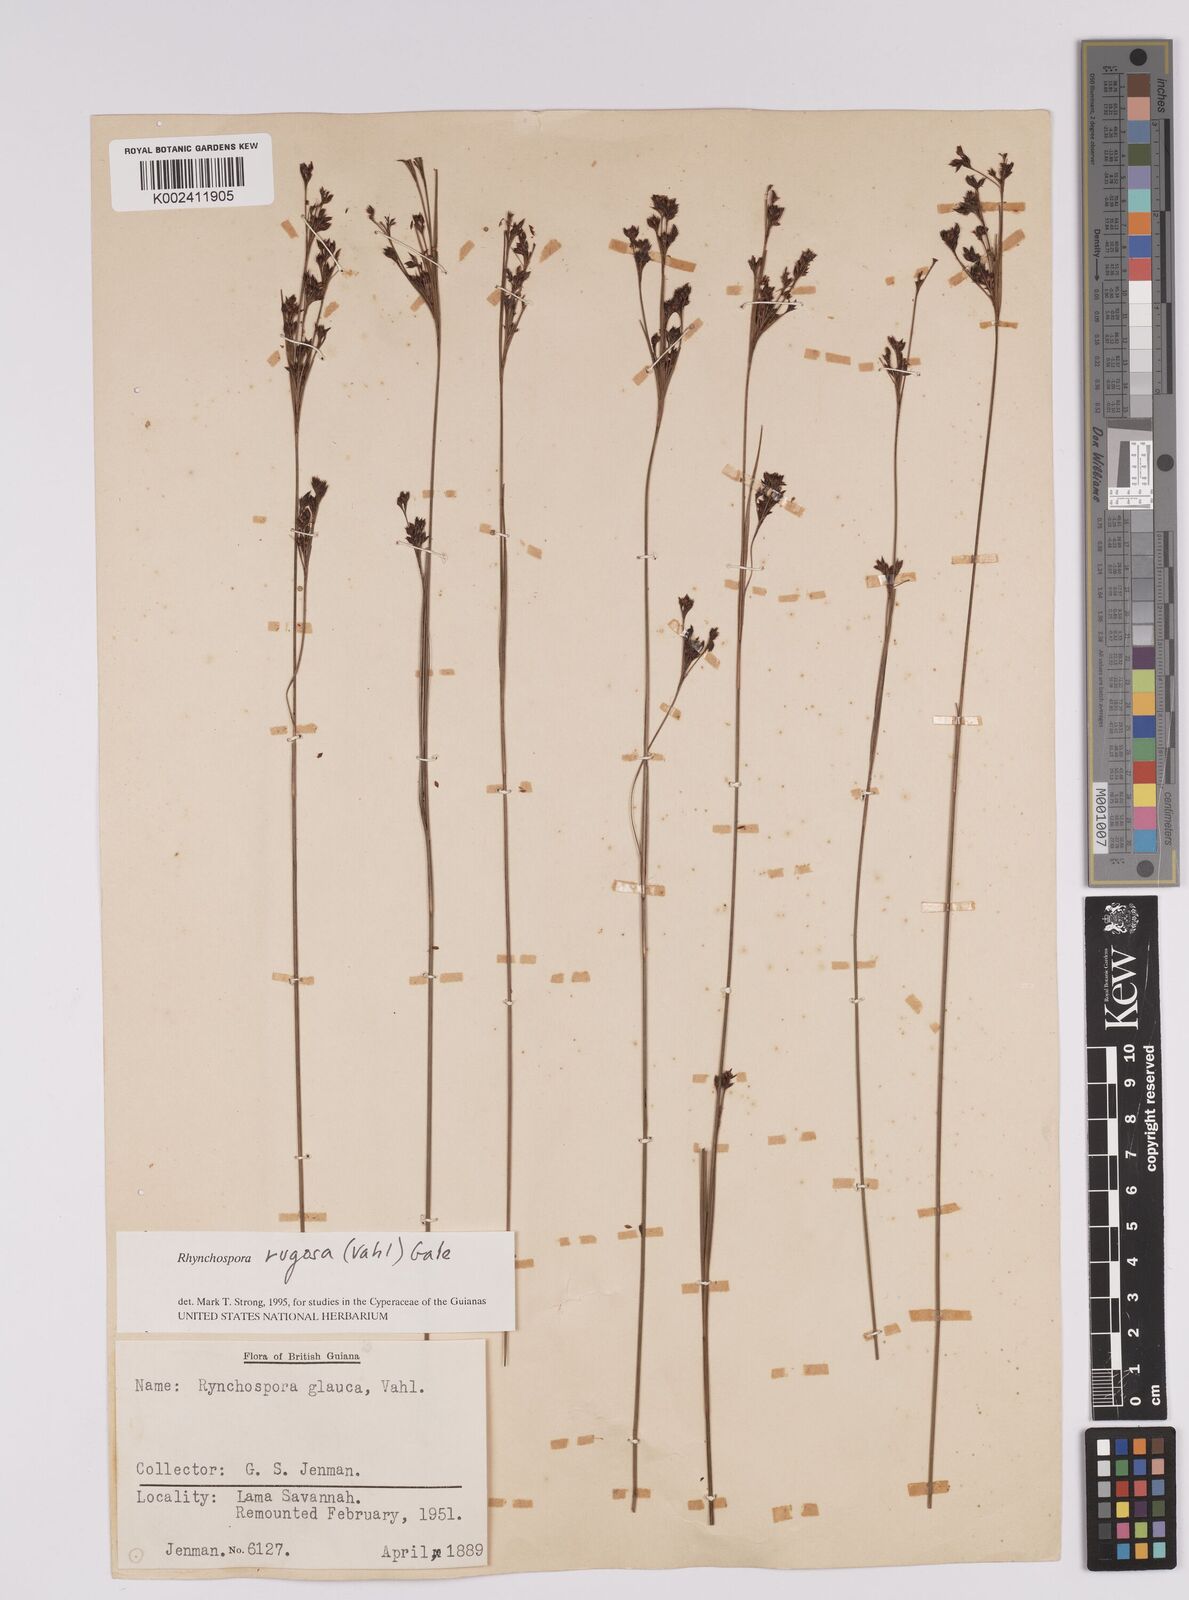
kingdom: Plantae
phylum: Tracheophyta
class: Liliopsida
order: Poales
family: Cyperaceae
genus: Rhynchospora
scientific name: Rhynchospora rugosa
